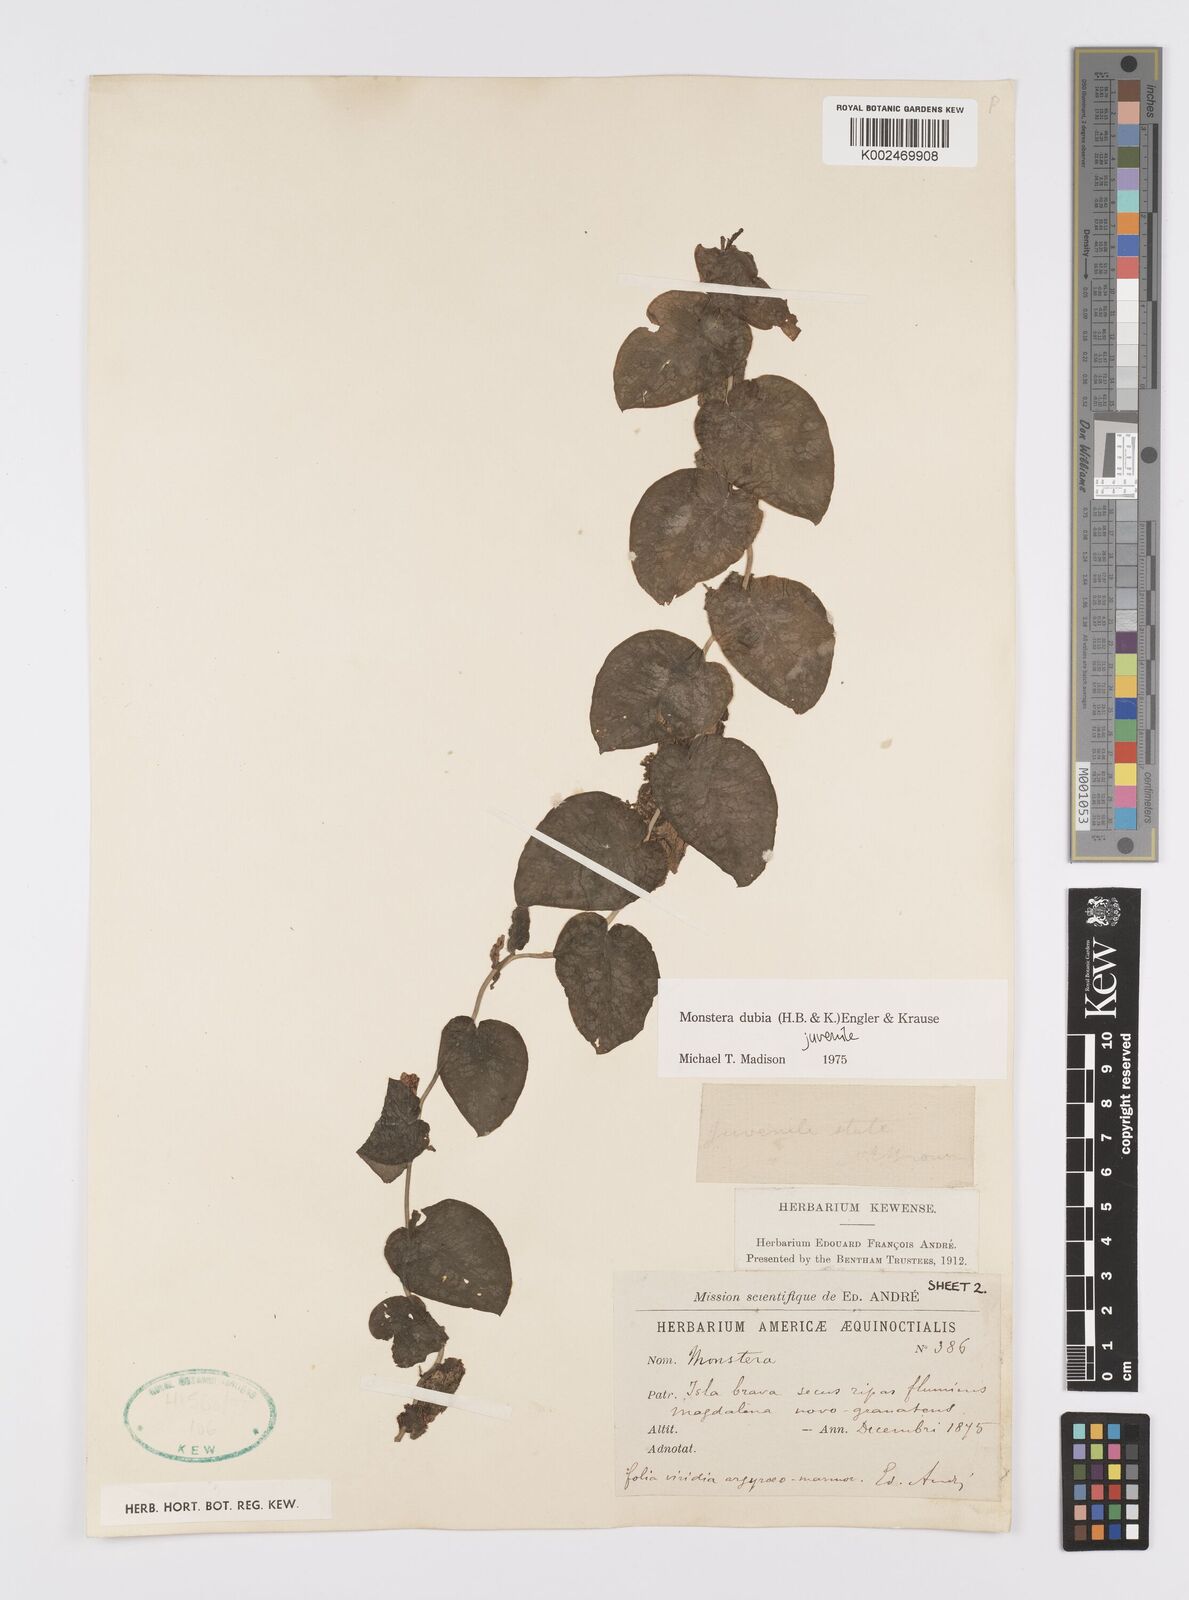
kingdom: Plantae
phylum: Tracheophyta
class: Liliopsida
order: Alismatales
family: Araceae
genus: Monstera
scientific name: Monstera dubia
